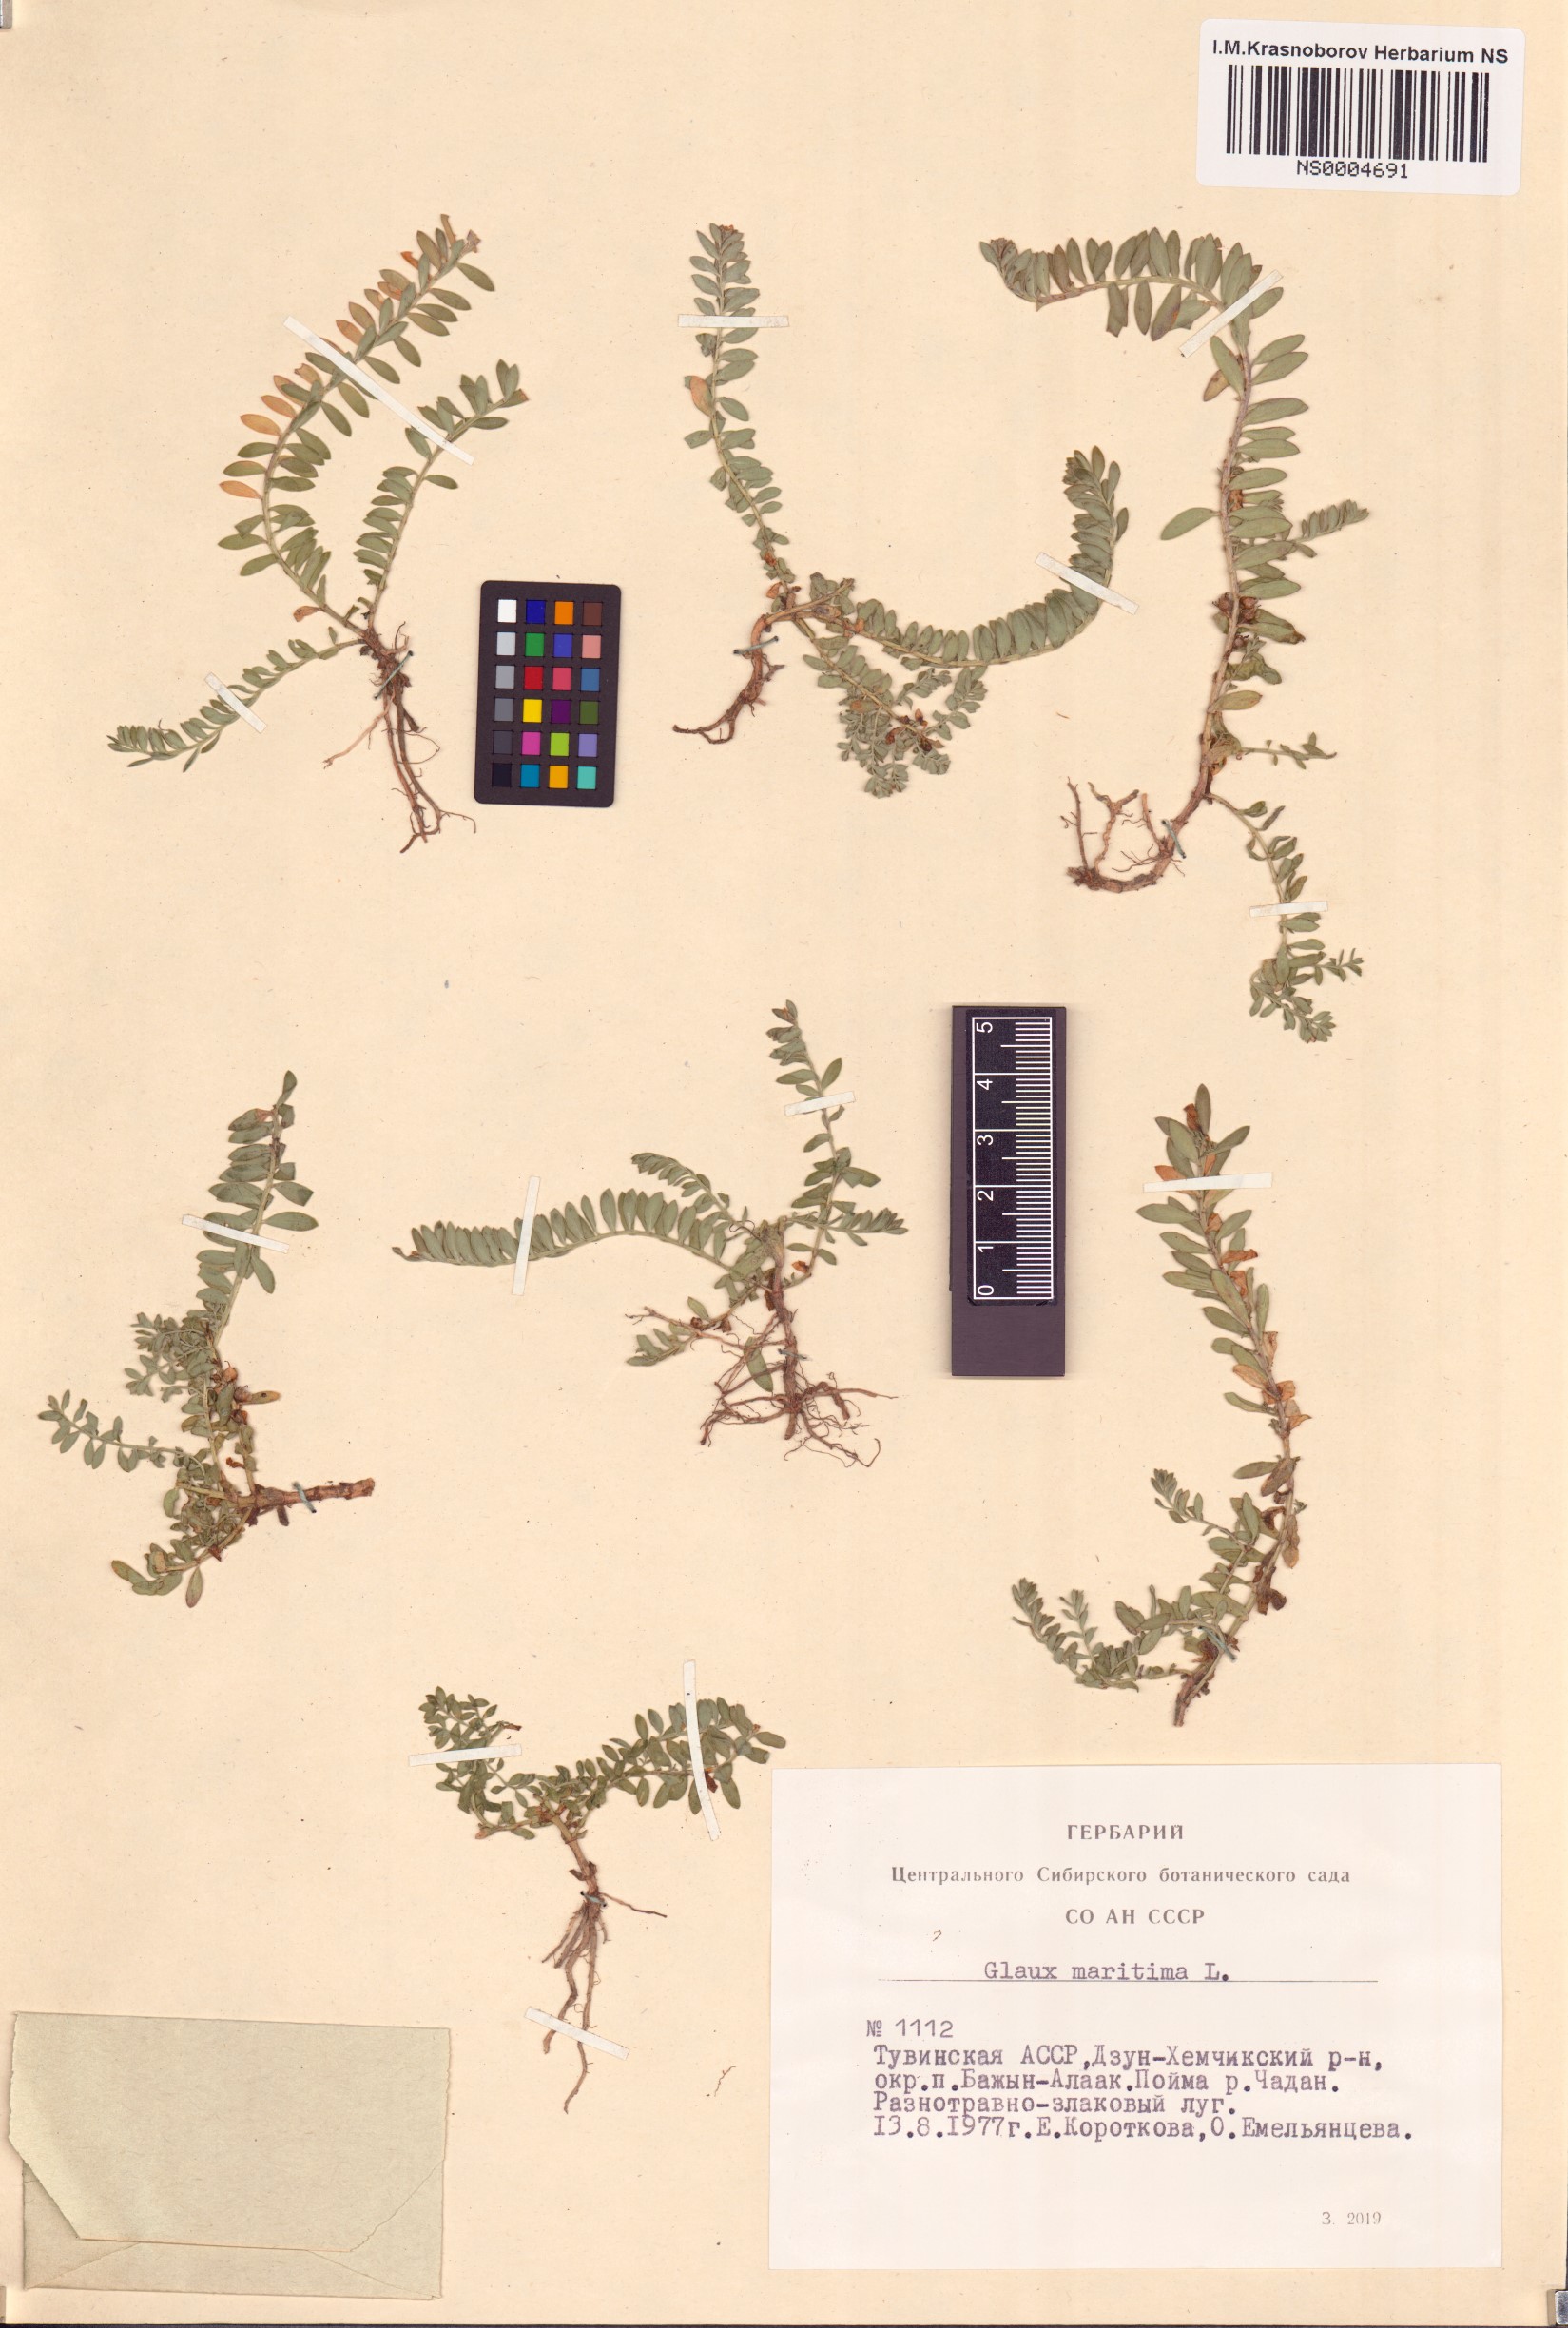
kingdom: Plantae
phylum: Tracheophyta
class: Magnoliopsida
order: Ericales
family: Primulaceae
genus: Lysimachia
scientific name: Lysimachia maritima
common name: Sea milkwort
